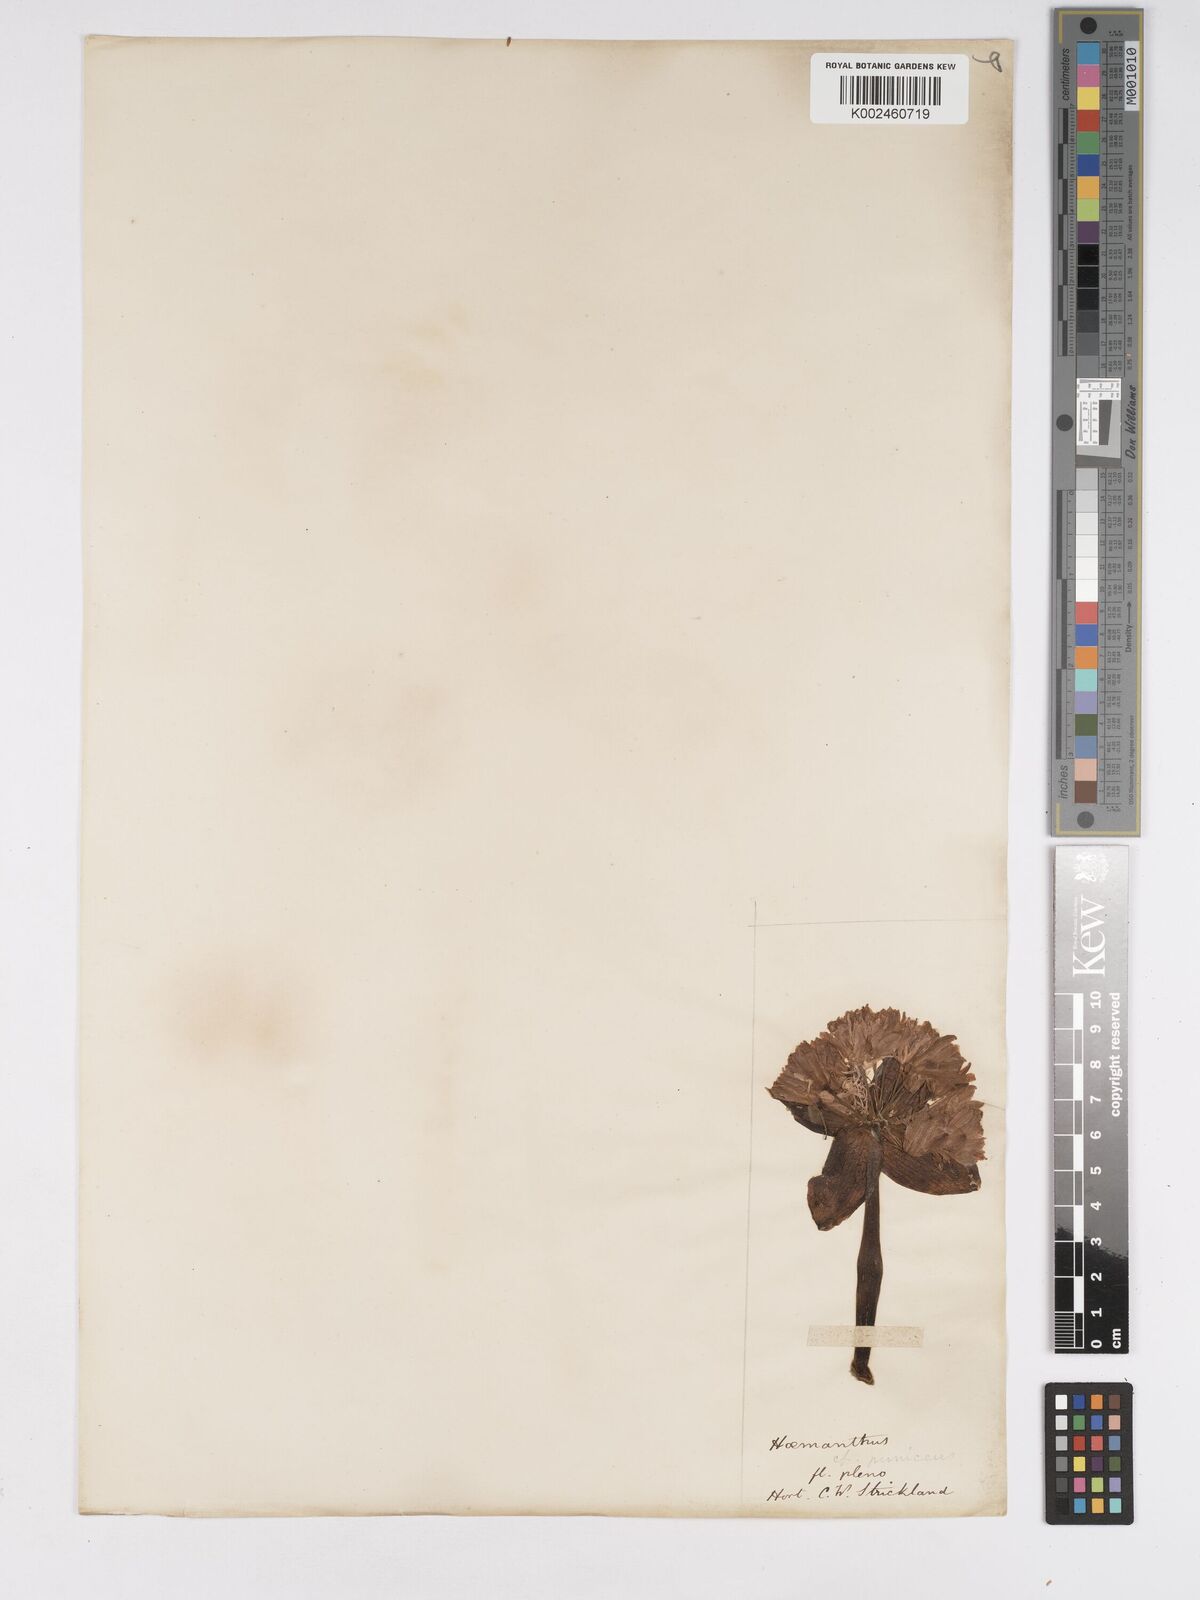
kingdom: Plantae
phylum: Tracheophyta
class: Liliopsida
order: Asparagales
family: Amaryllidaceae
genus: Scadoxus
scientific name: Scadoxus puniceus
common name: Royal-paintbrush
